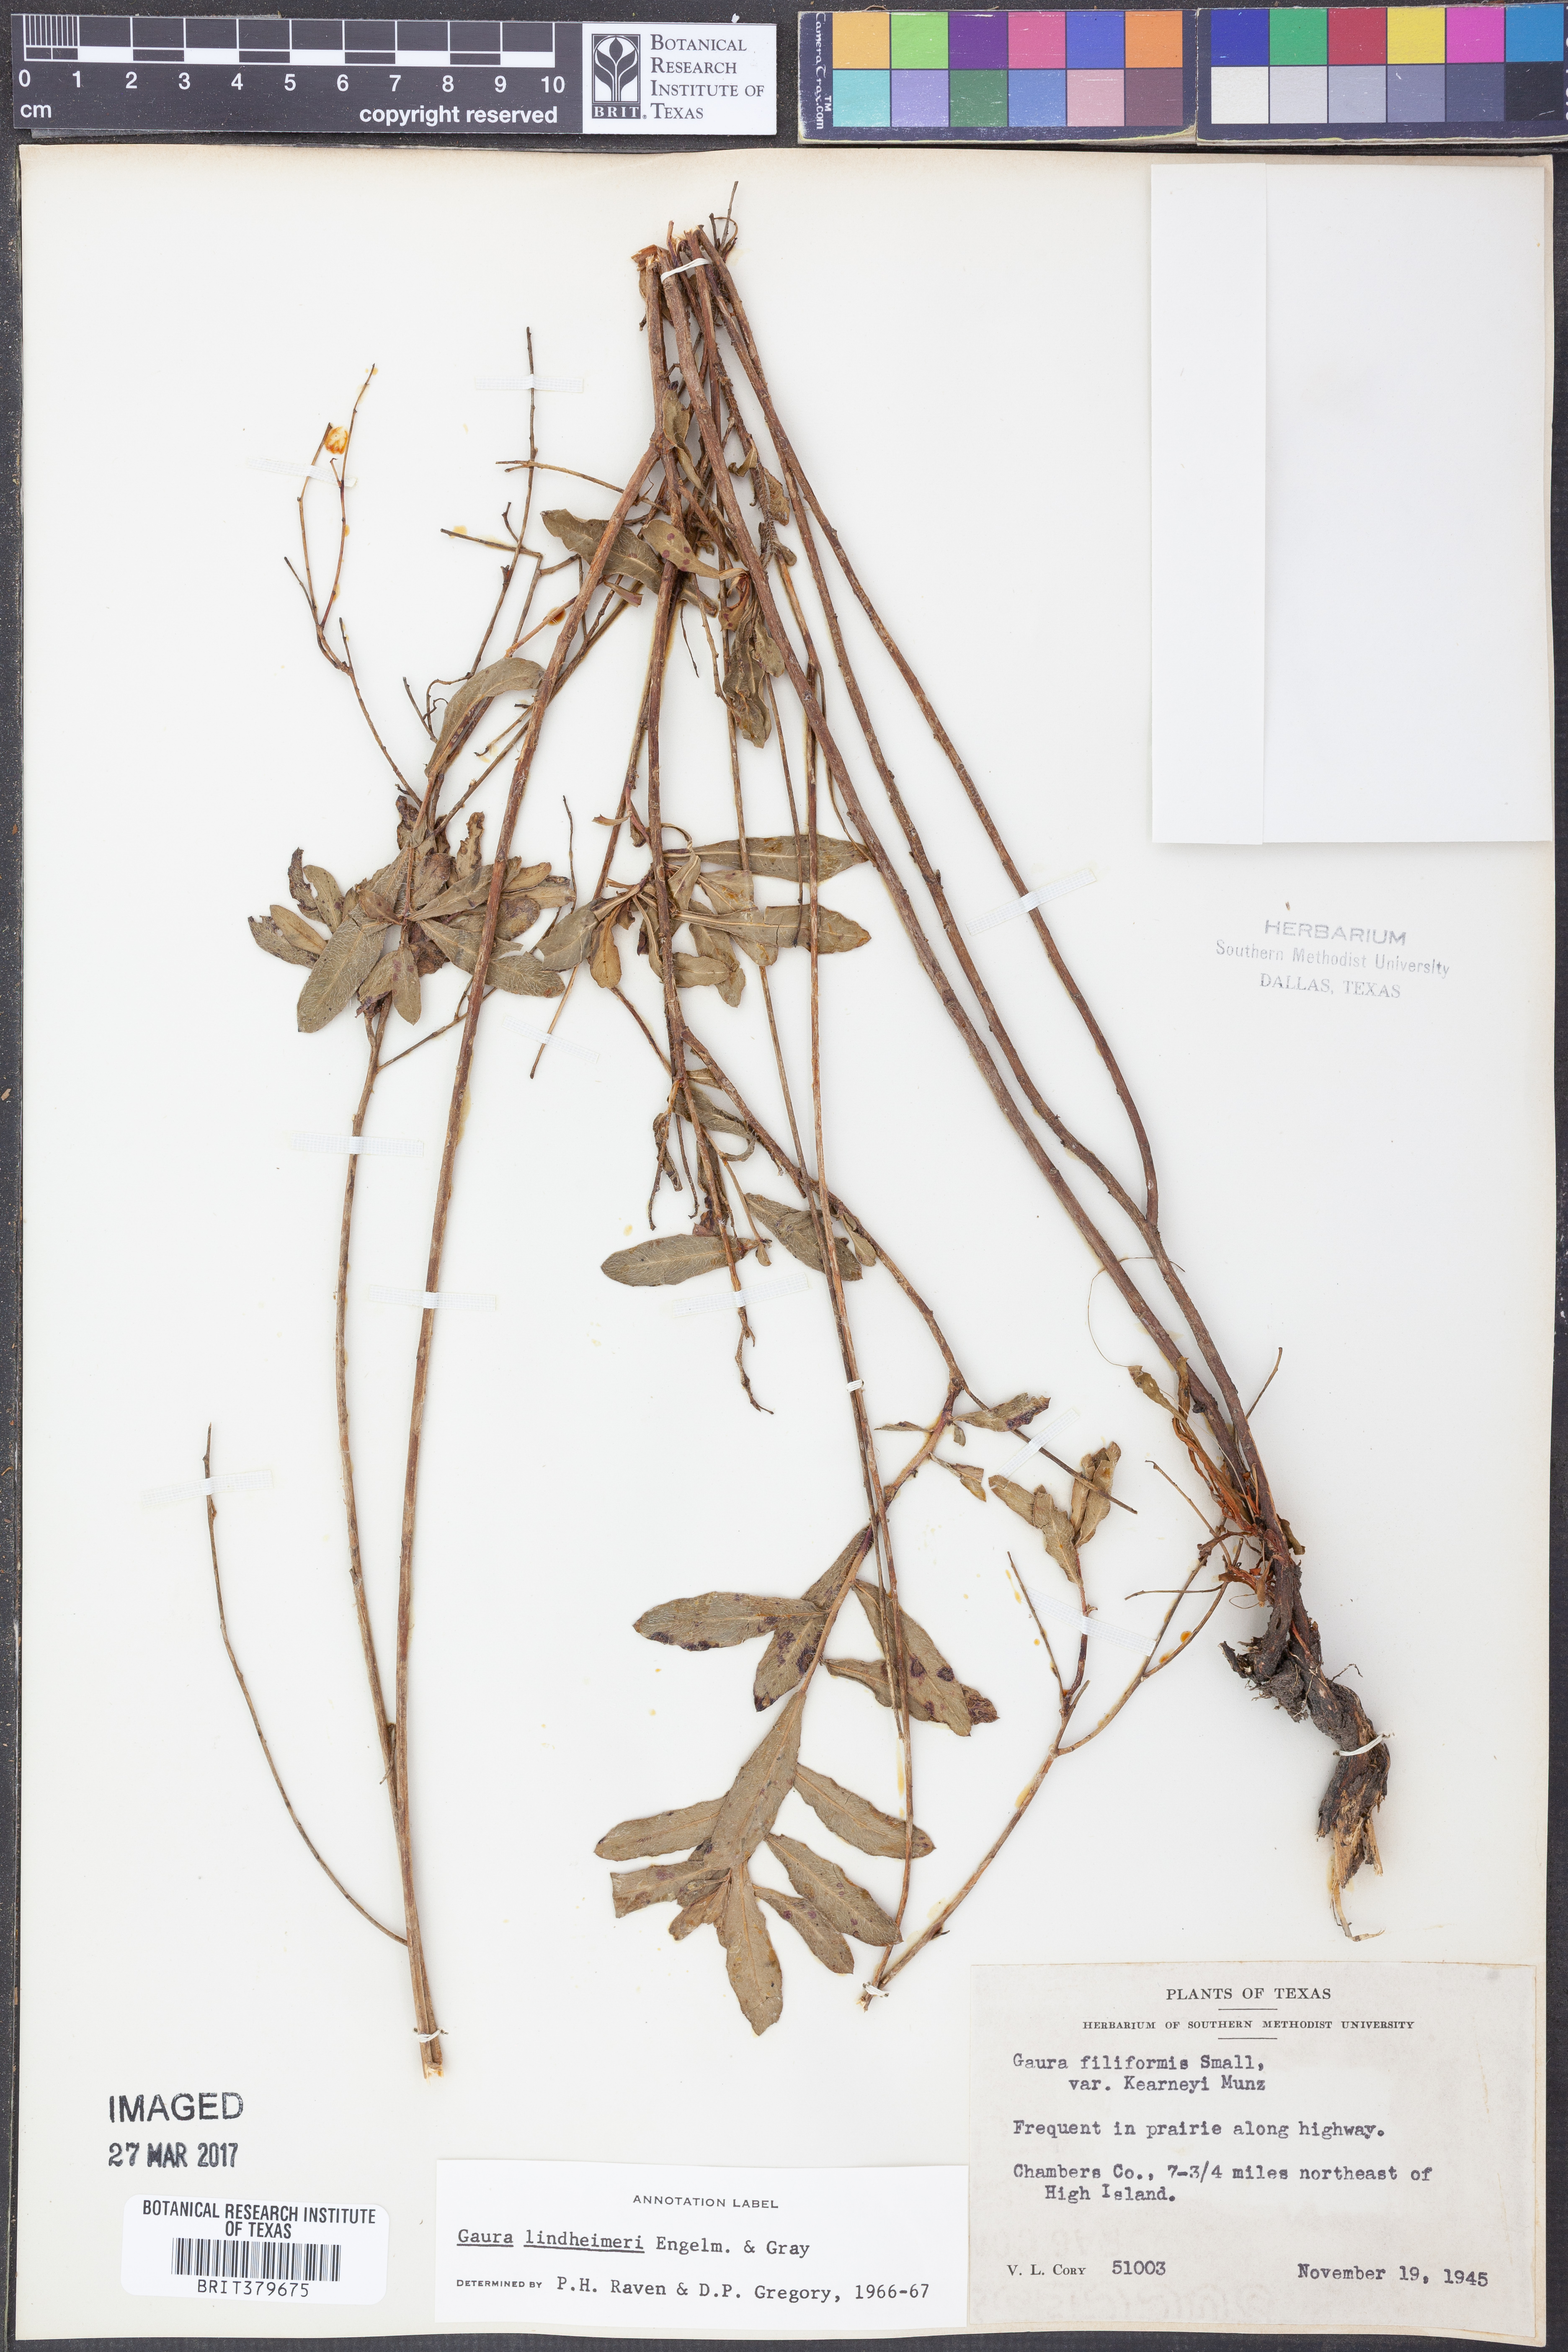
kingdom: Plantae
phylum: Tracheophyta
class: Magnoliopsida
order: Myrtales
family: Onagraceae
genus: Oenothera
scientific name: Oenothera filiformis
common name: Longflower beeblossom
